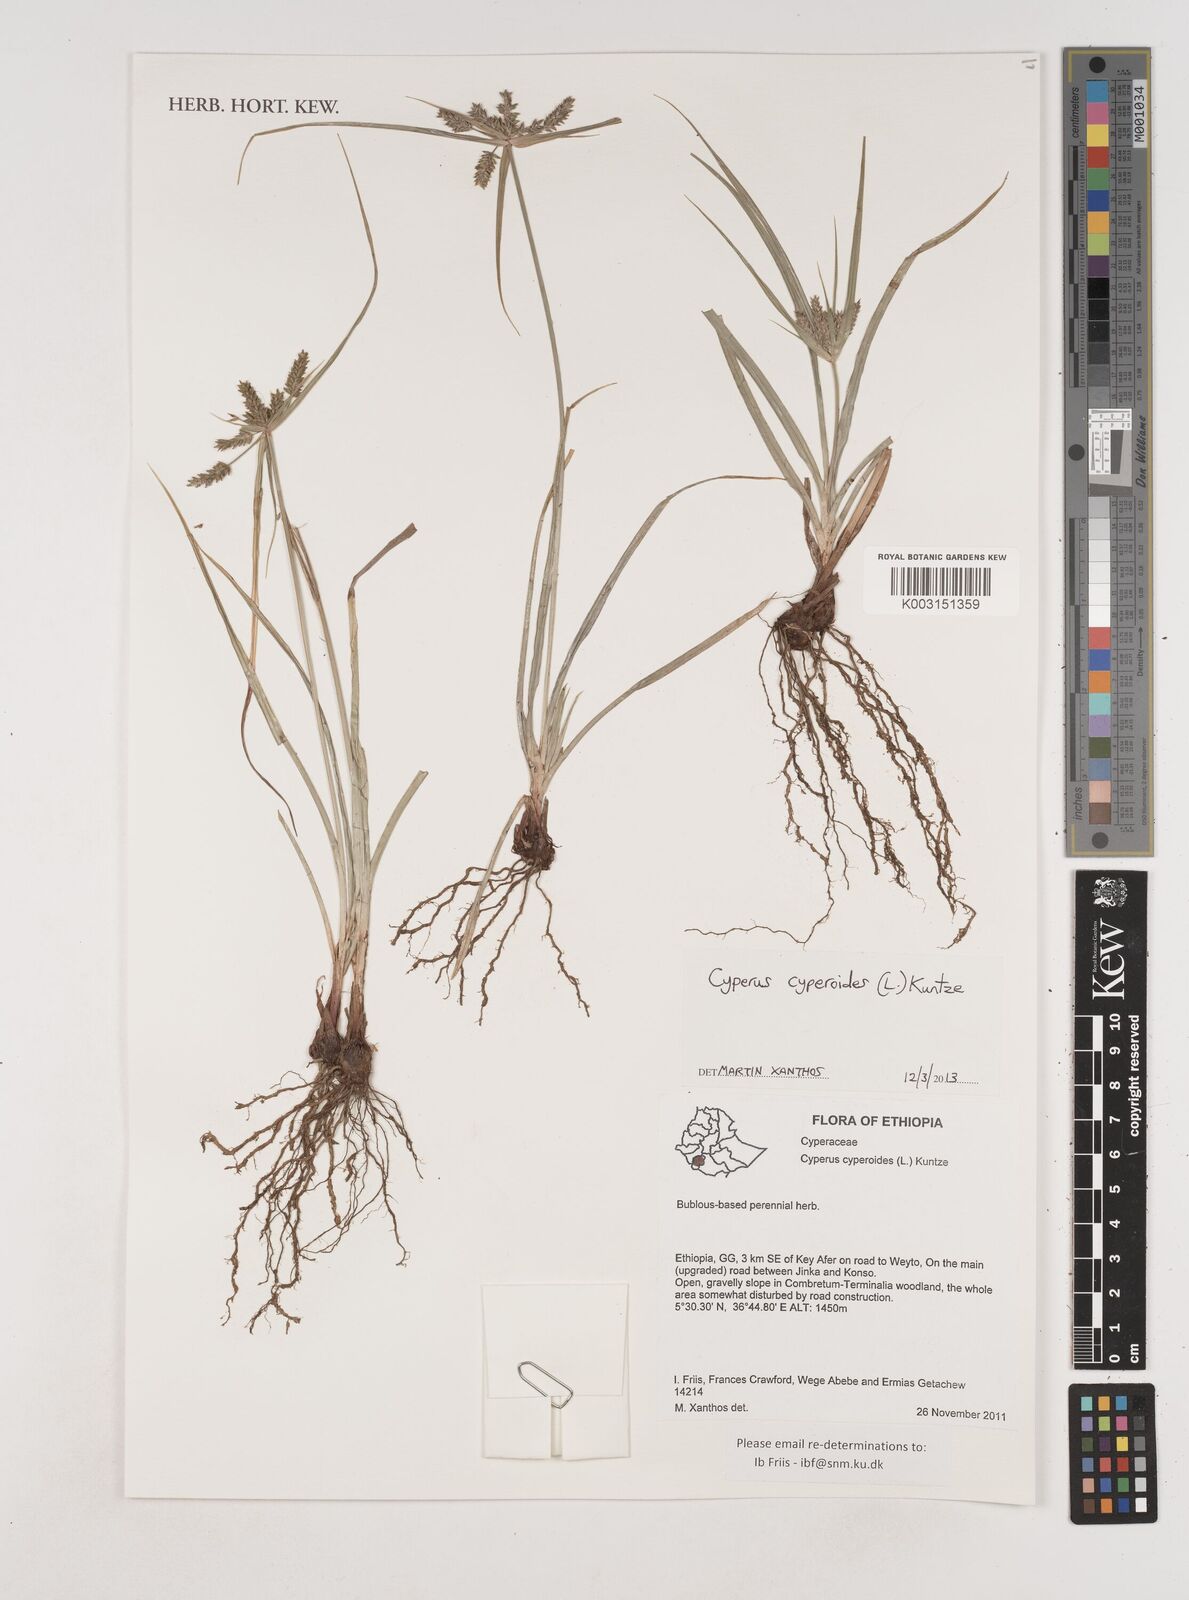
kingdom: Plantae
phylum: Tracheophyta
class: Liliopsida
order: Poales
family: Cyperaceae
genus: Cyperus
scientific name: Cyperus cyperoides
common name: Pacific island flat sedge
